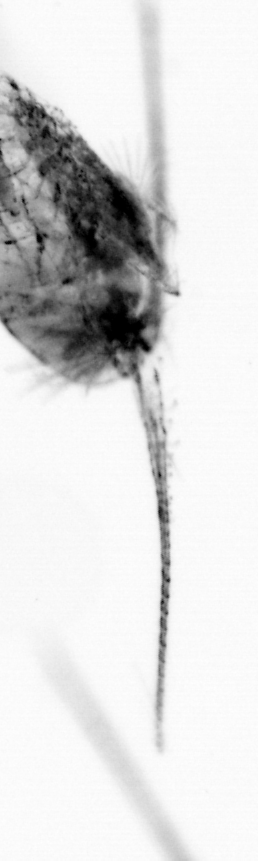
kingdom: Animalia
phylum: Arthropoda
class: Copepoda
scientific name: Copepoda
